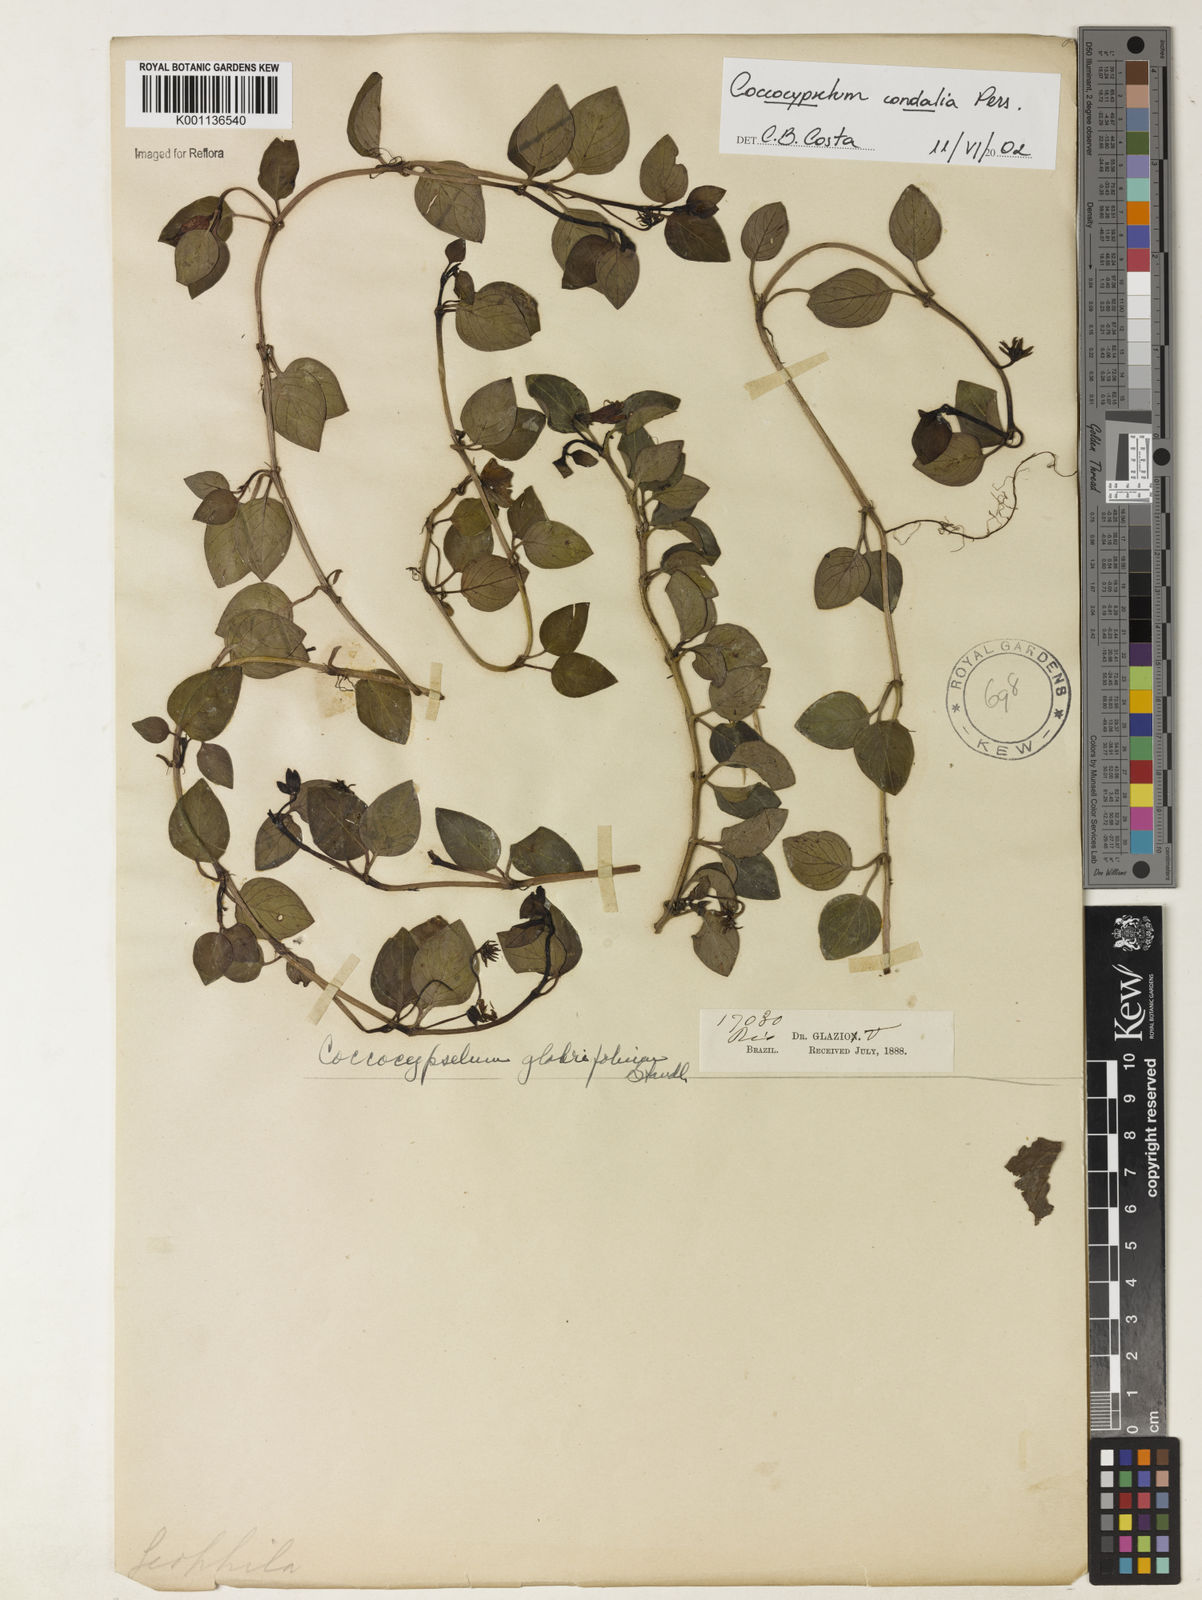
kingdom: Plantae
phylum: Tracheophyta
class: Magnoliopsida
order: Gentianales
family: Rubiaceae
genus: Coccocypselum
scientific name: Coccocypselum condalia
